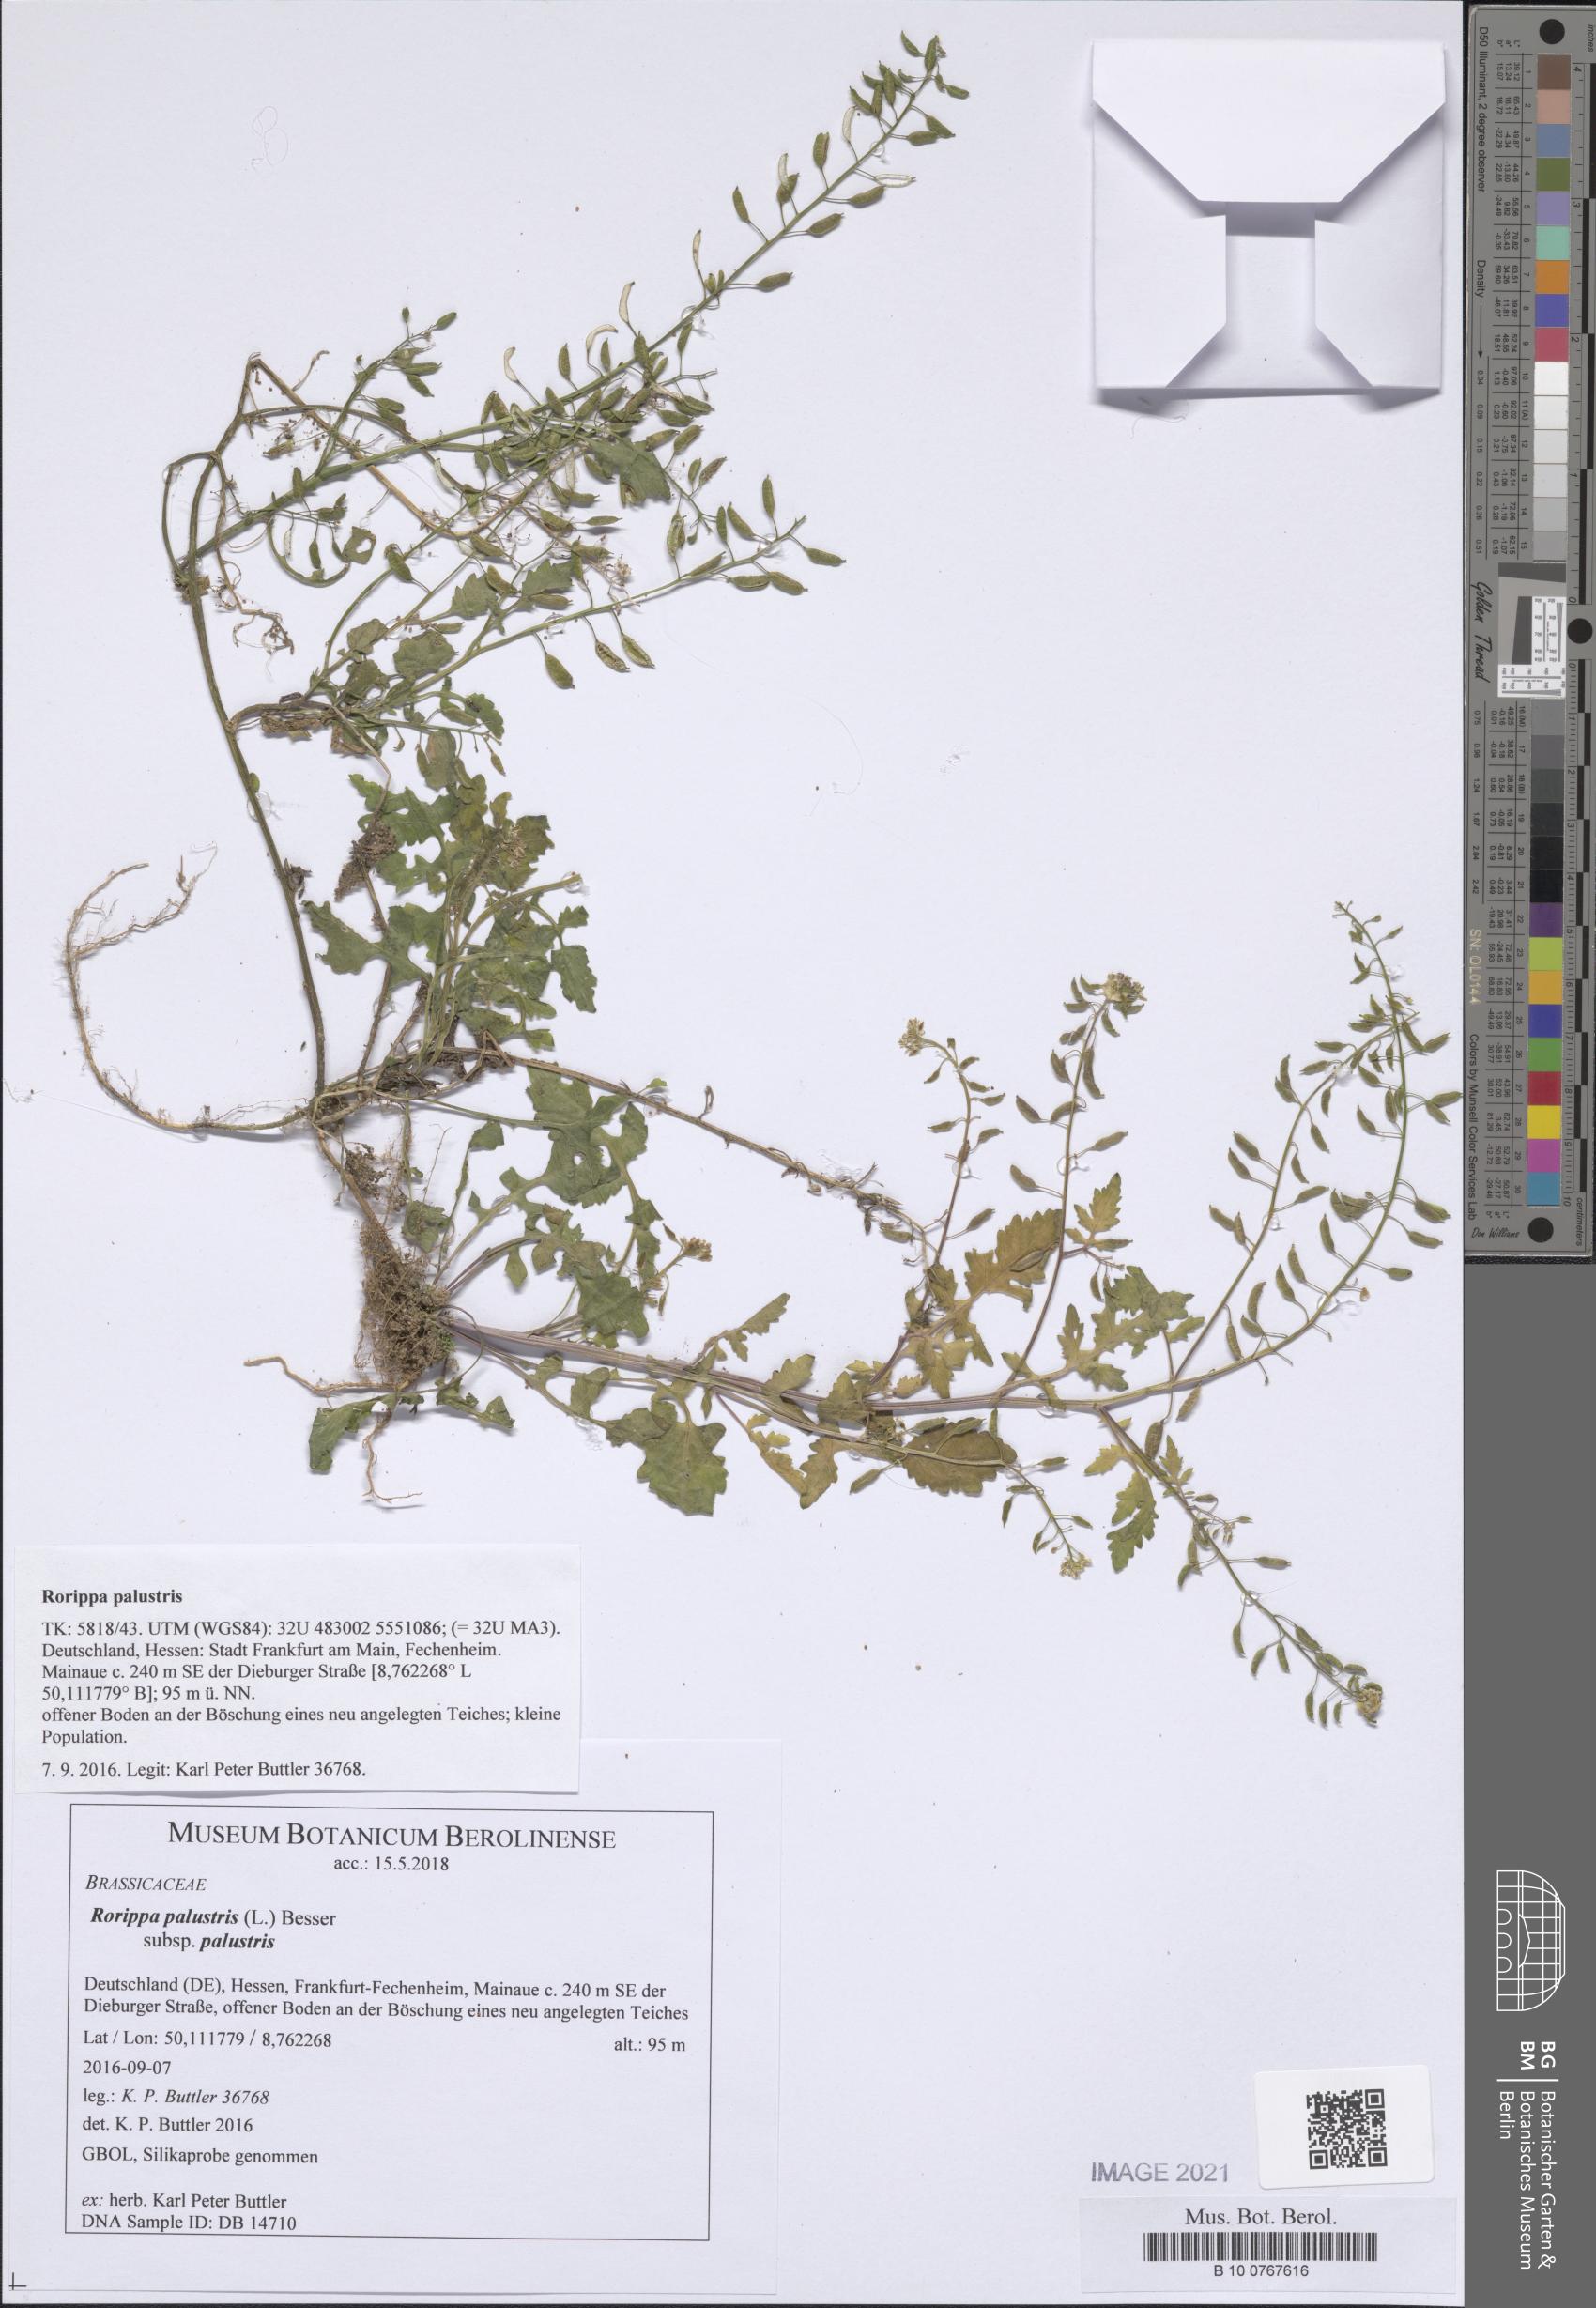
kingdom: Plantae
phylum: Tracheophyta
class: Magnoliopsida
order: Brassicales
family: Brassicaceae
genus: Rorippa
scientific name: Rorippa palustris
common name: Marsh yellow-cress
